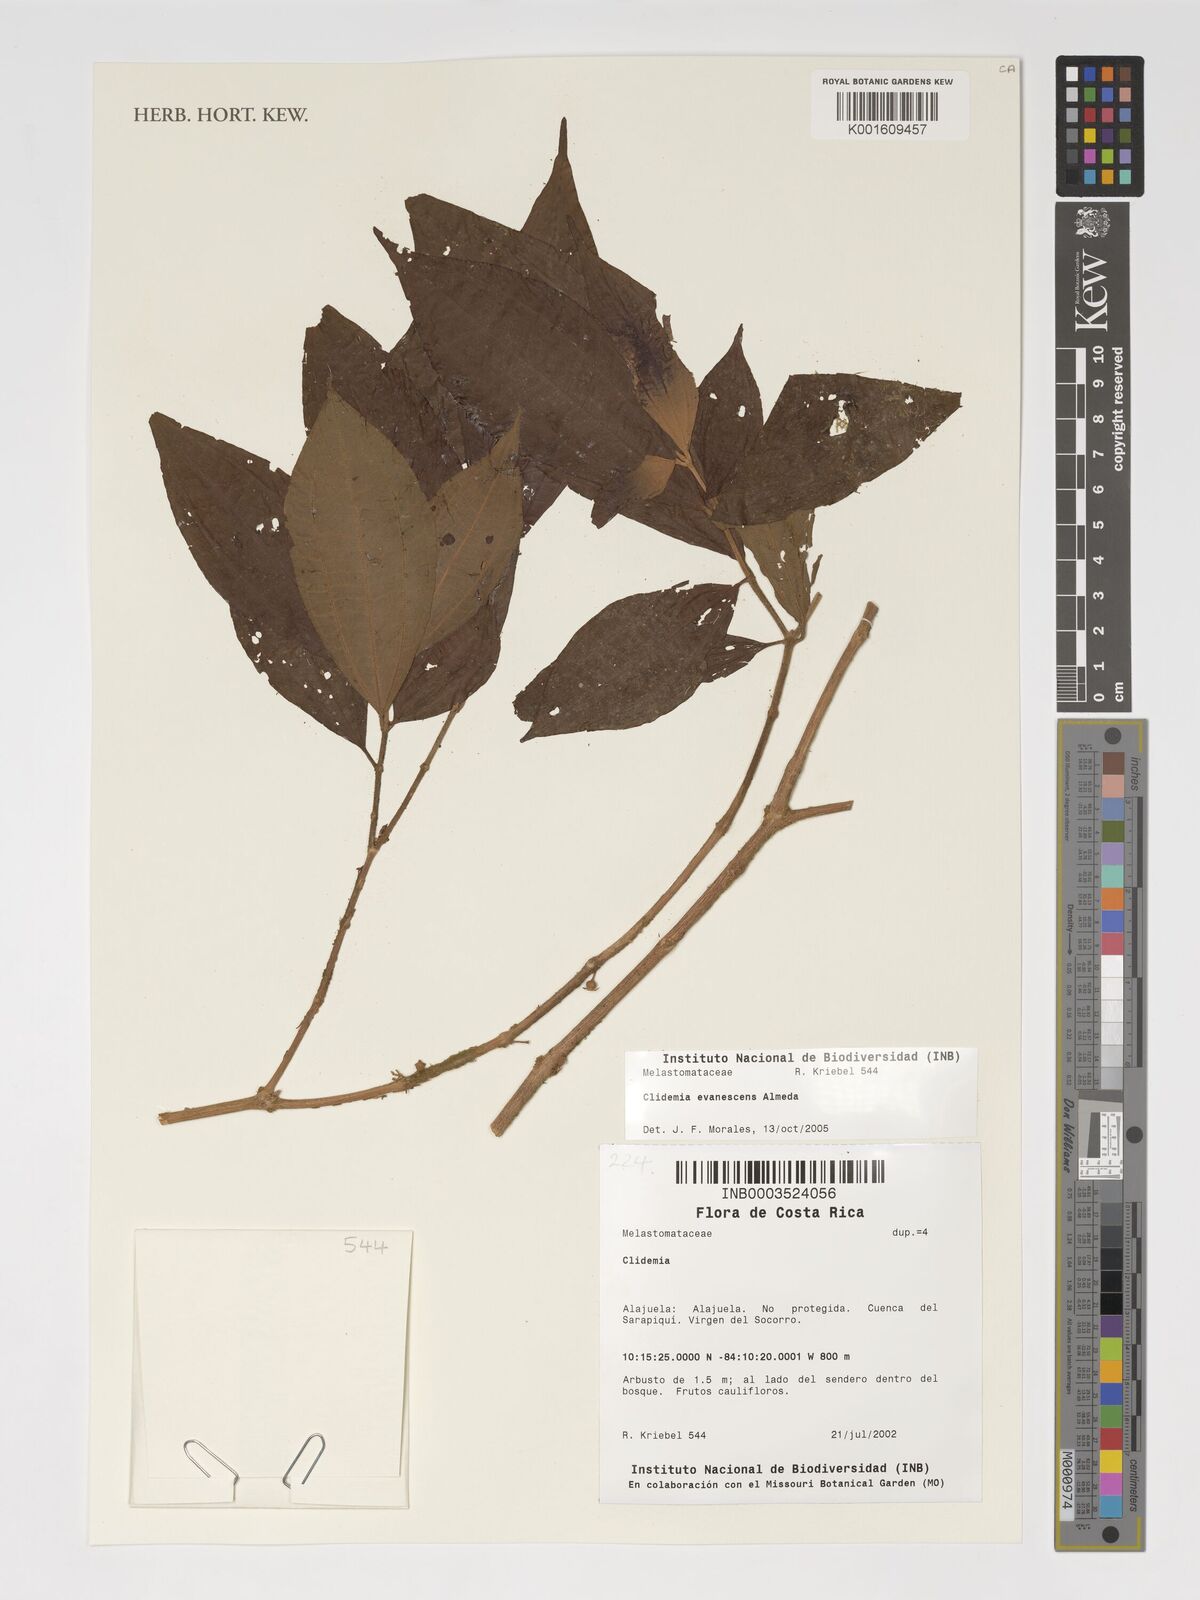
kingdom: Plantae
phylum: Tracheophyta
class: Magnoliopsida
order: Myrtales
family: Melastomataceae
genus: Miconia
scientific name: Miconia evanescens
